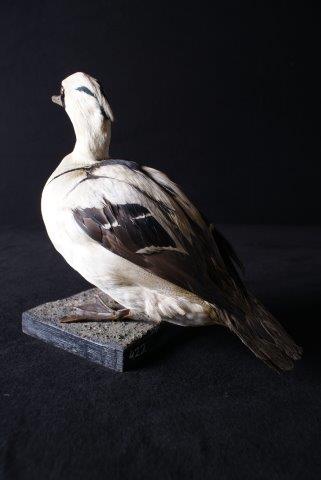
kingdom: Animalia
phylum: Chordata
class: Aves
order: Anseriformes
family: Anatidae
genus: Mergellus
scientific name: Mergellus albellus
